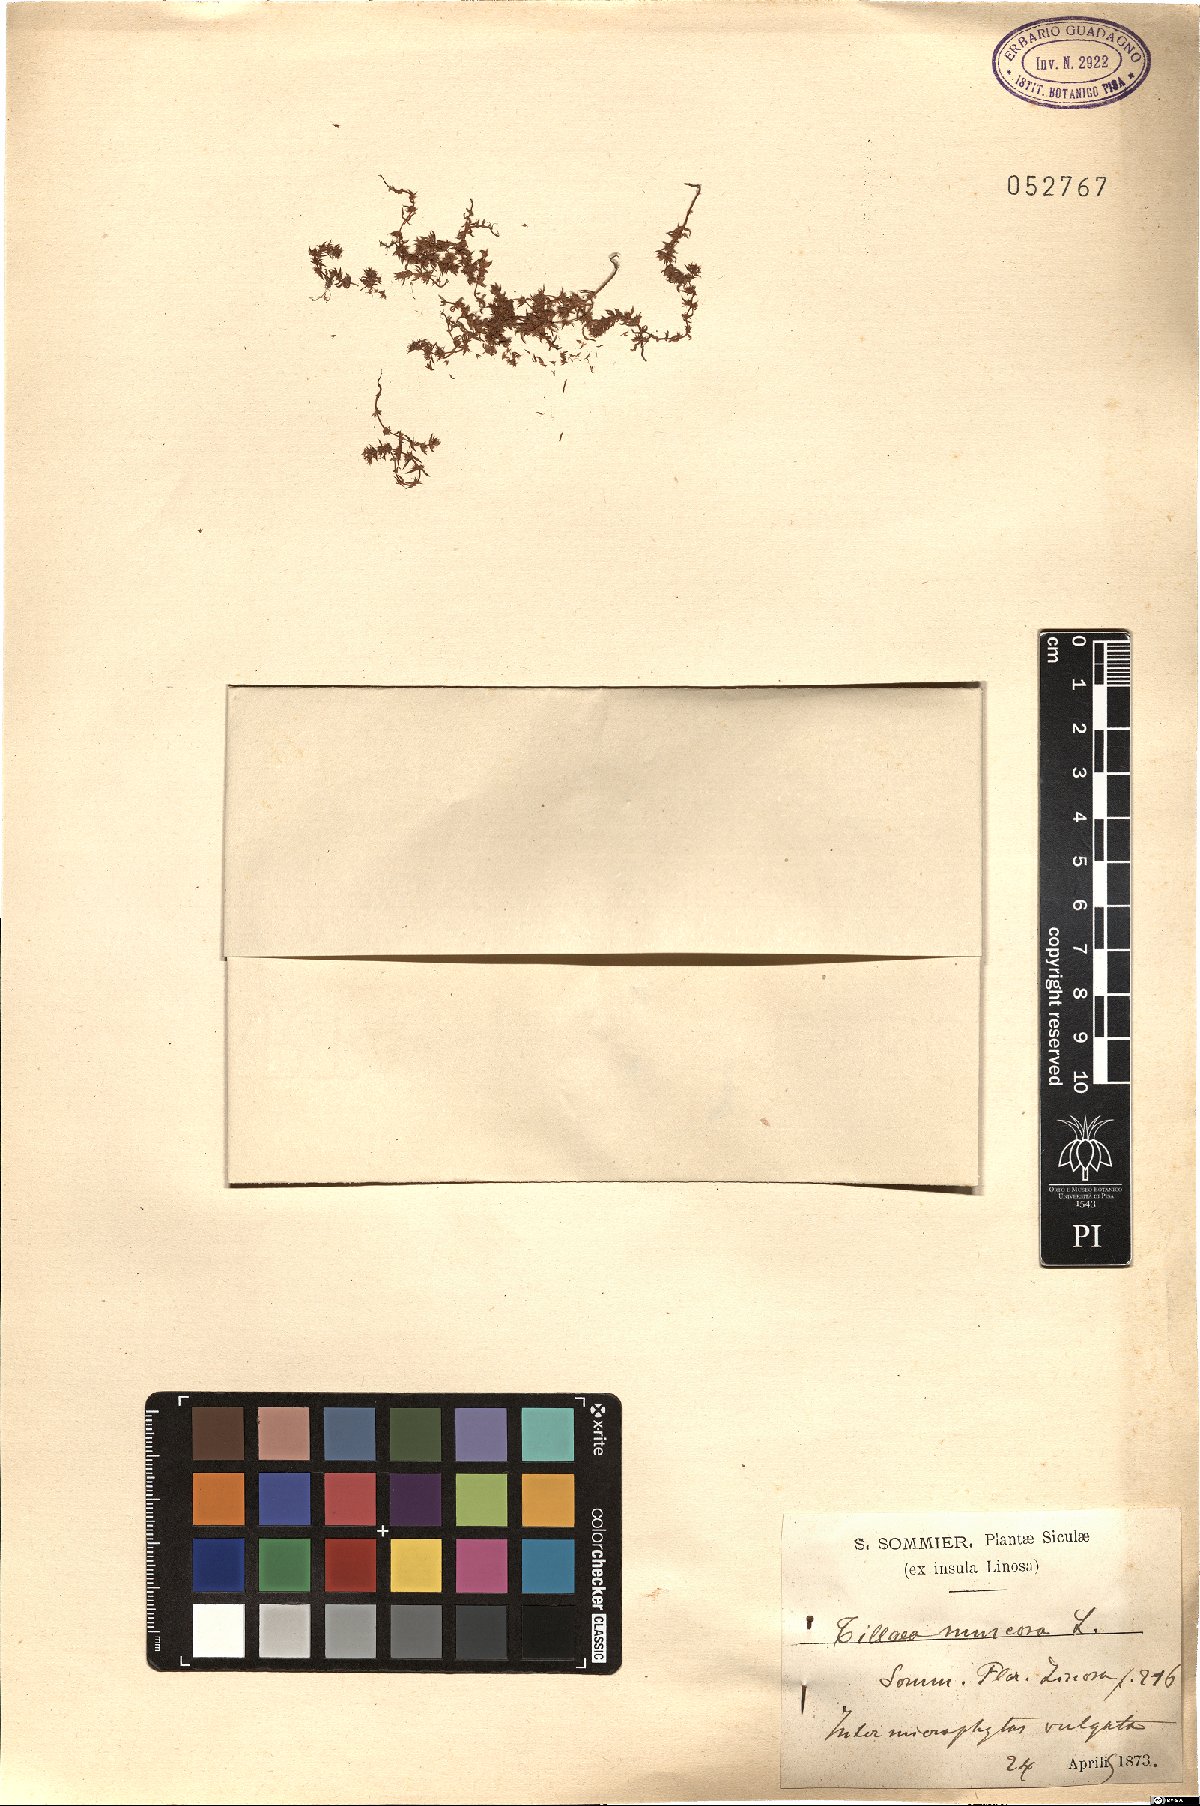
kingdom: Plantae
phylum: Tracheophyta
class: Magnoliopsida
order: Saxifragales
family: Crassulaceae
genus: Crassula
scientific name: Crassula tillaea
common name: Mossy stonecrop
